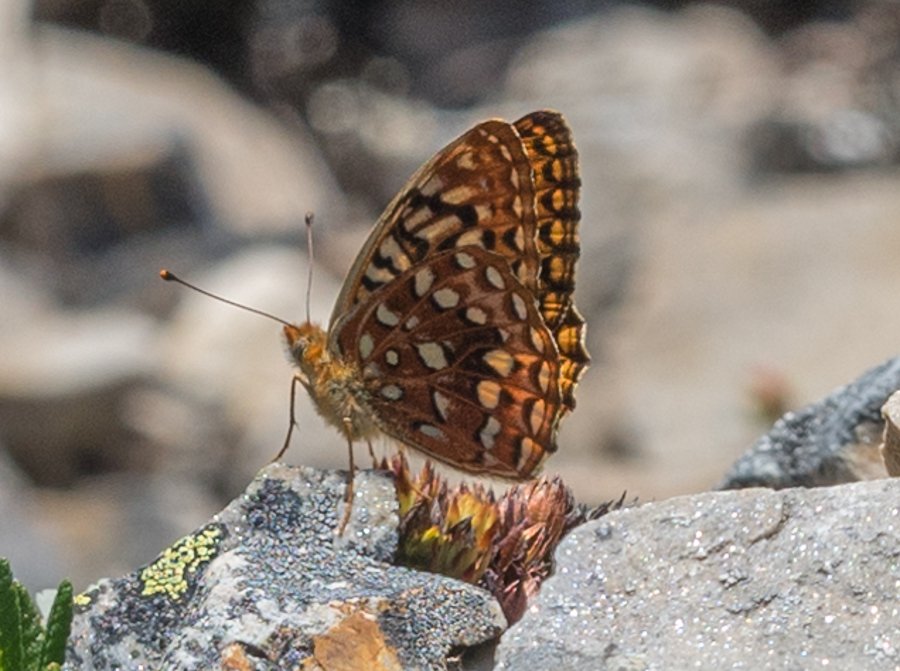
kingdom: Animalia
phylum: Arthropoda
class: Insecta
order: Lepidoptera
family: Nymphalidae
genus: Speyeria
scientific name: Speyeria hydaspe
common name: Hydaspe Fritillary
